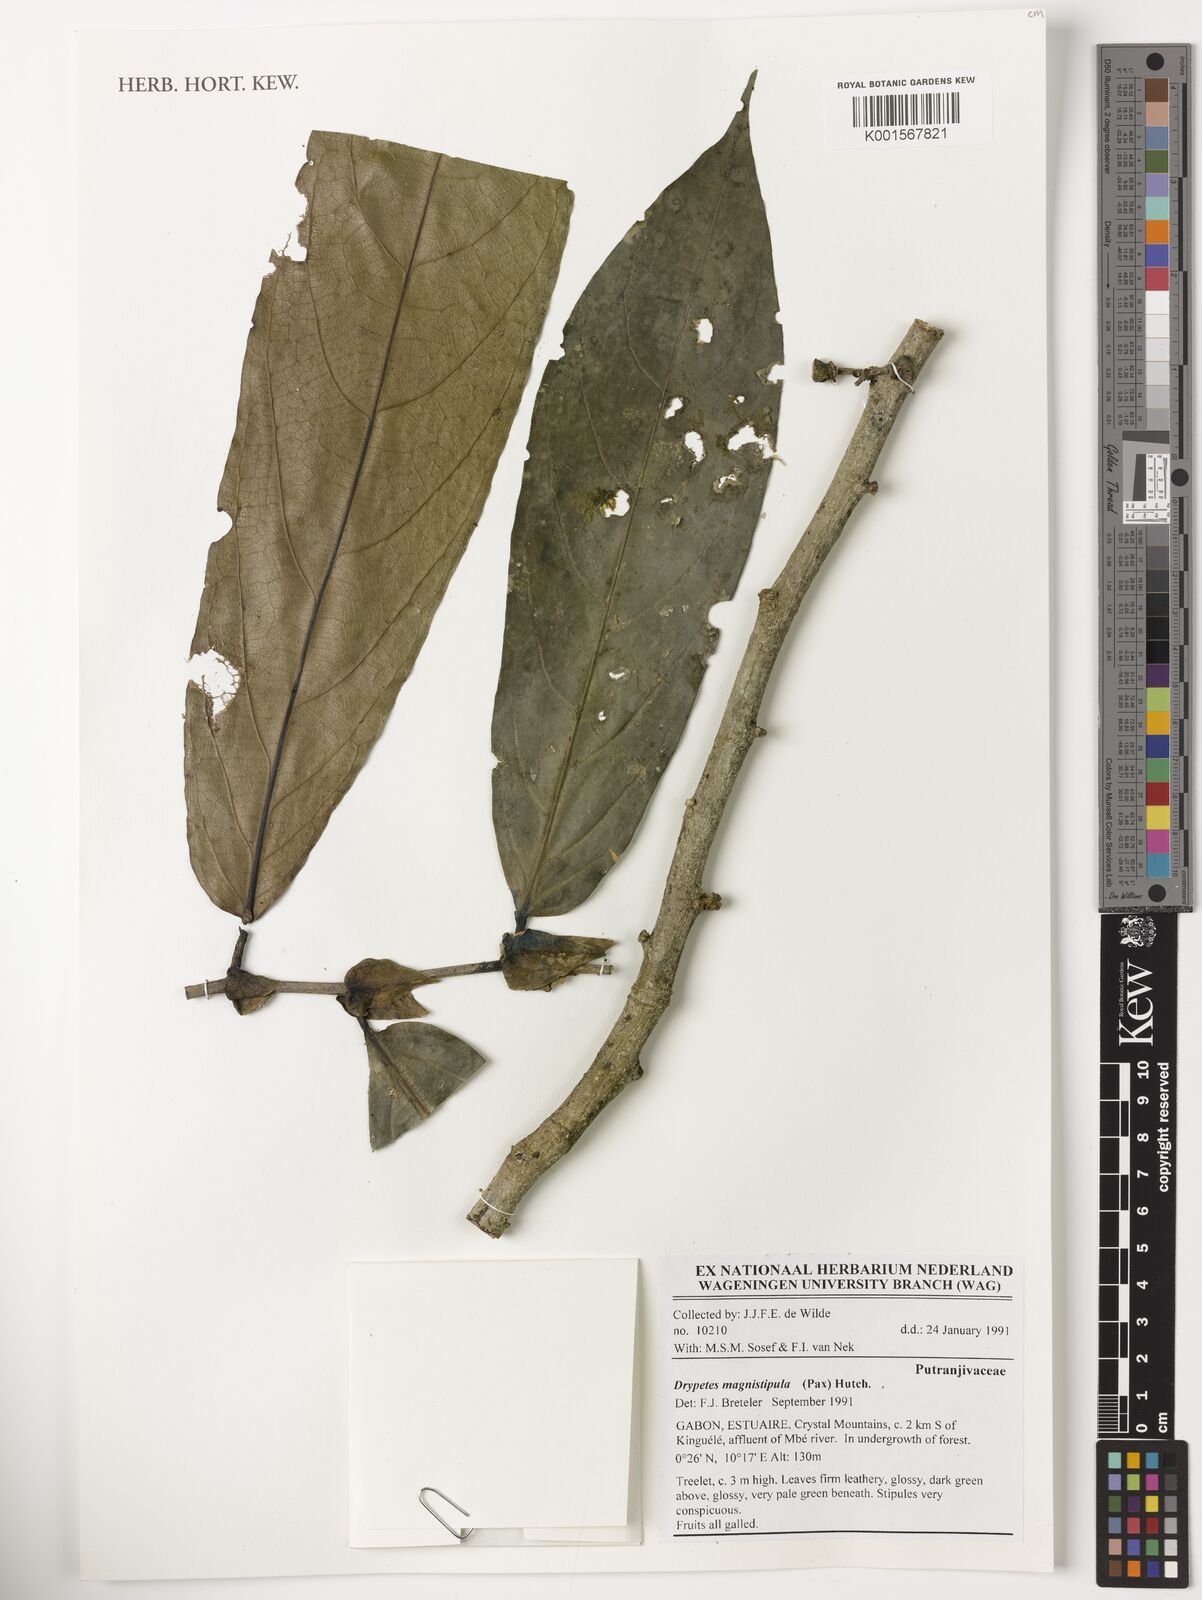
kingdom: Plantae
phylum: Tracheophyta
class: Magnoliopsida
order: Malpighiales
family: Putranjivaceae
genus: Drypetes
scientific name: Drypetes magnistipula
